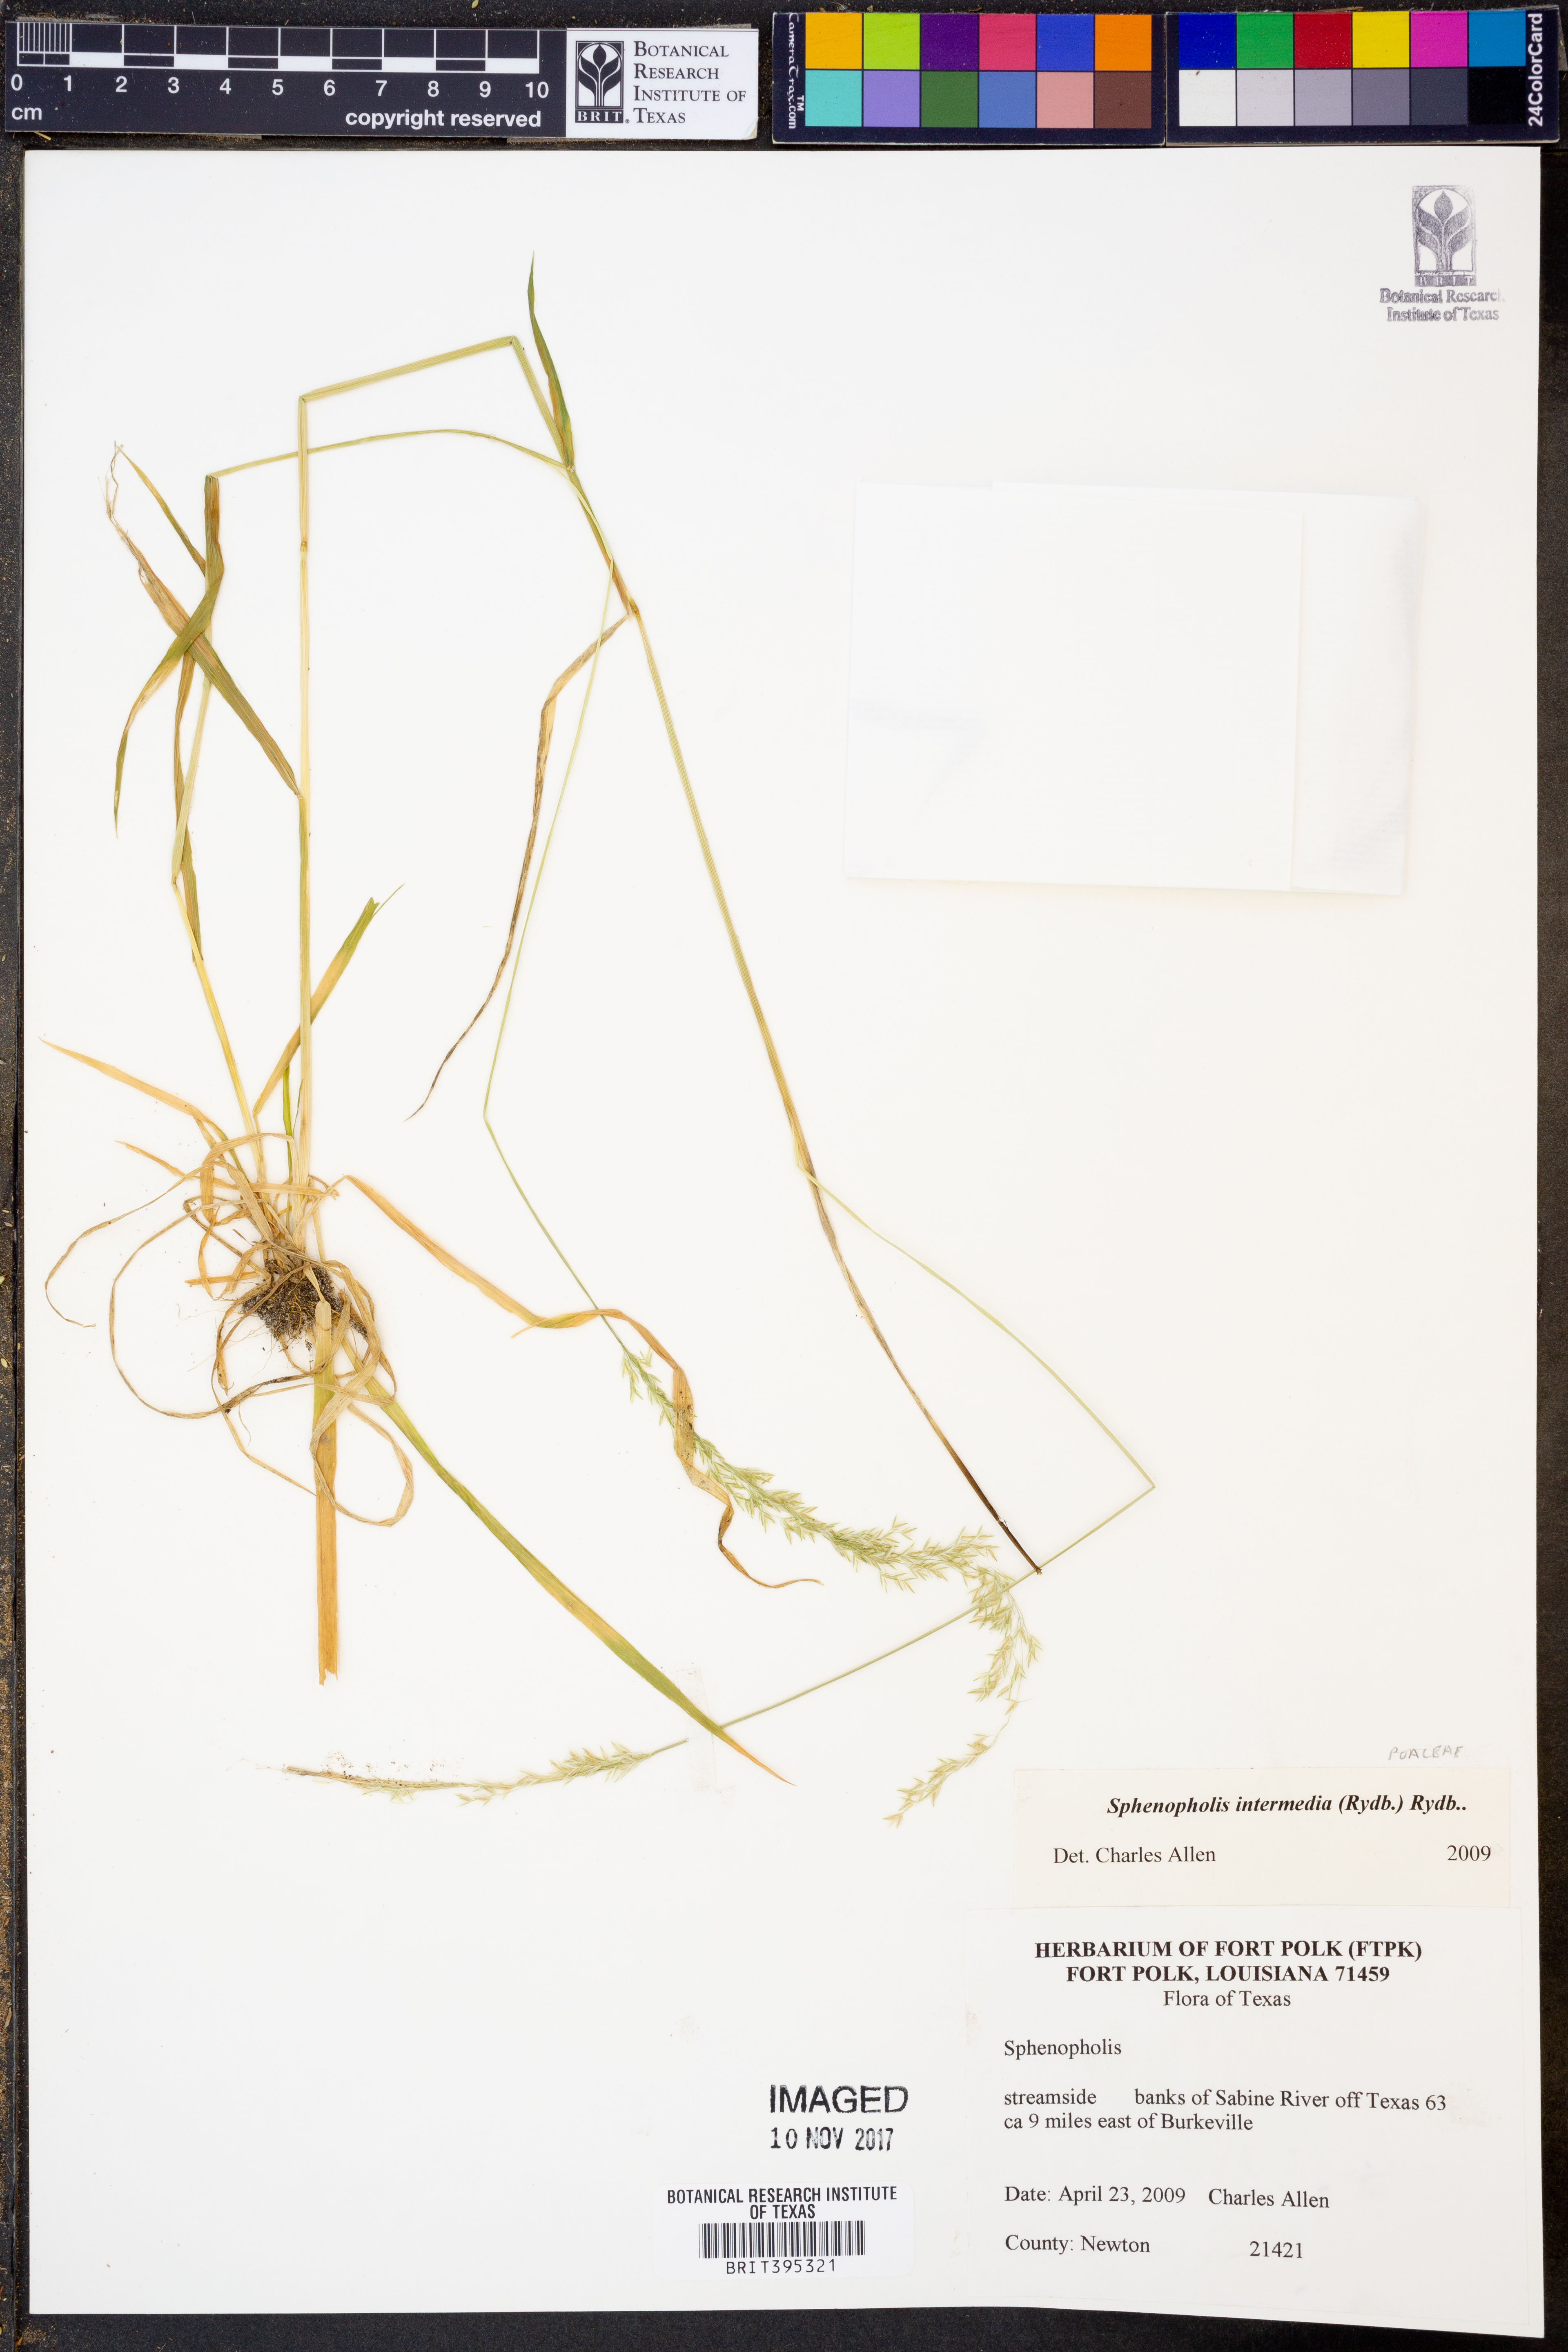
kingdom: Plantae
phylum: Tracheophyta
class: Liliopsida
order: Poales
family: Poaceae
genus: Sphenopholis
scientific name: Sphenopholis intermedia
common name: Intermediate eaton's grass
